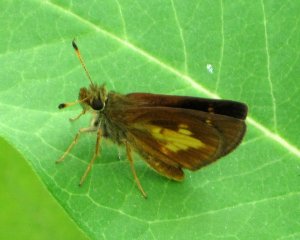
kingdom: Animalia
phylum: Arthropoda
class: Insecta
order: Lepidoptera
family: Hesperiidae
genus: Poanes
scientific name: Poanes massasoit
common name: Mulberry Wing
